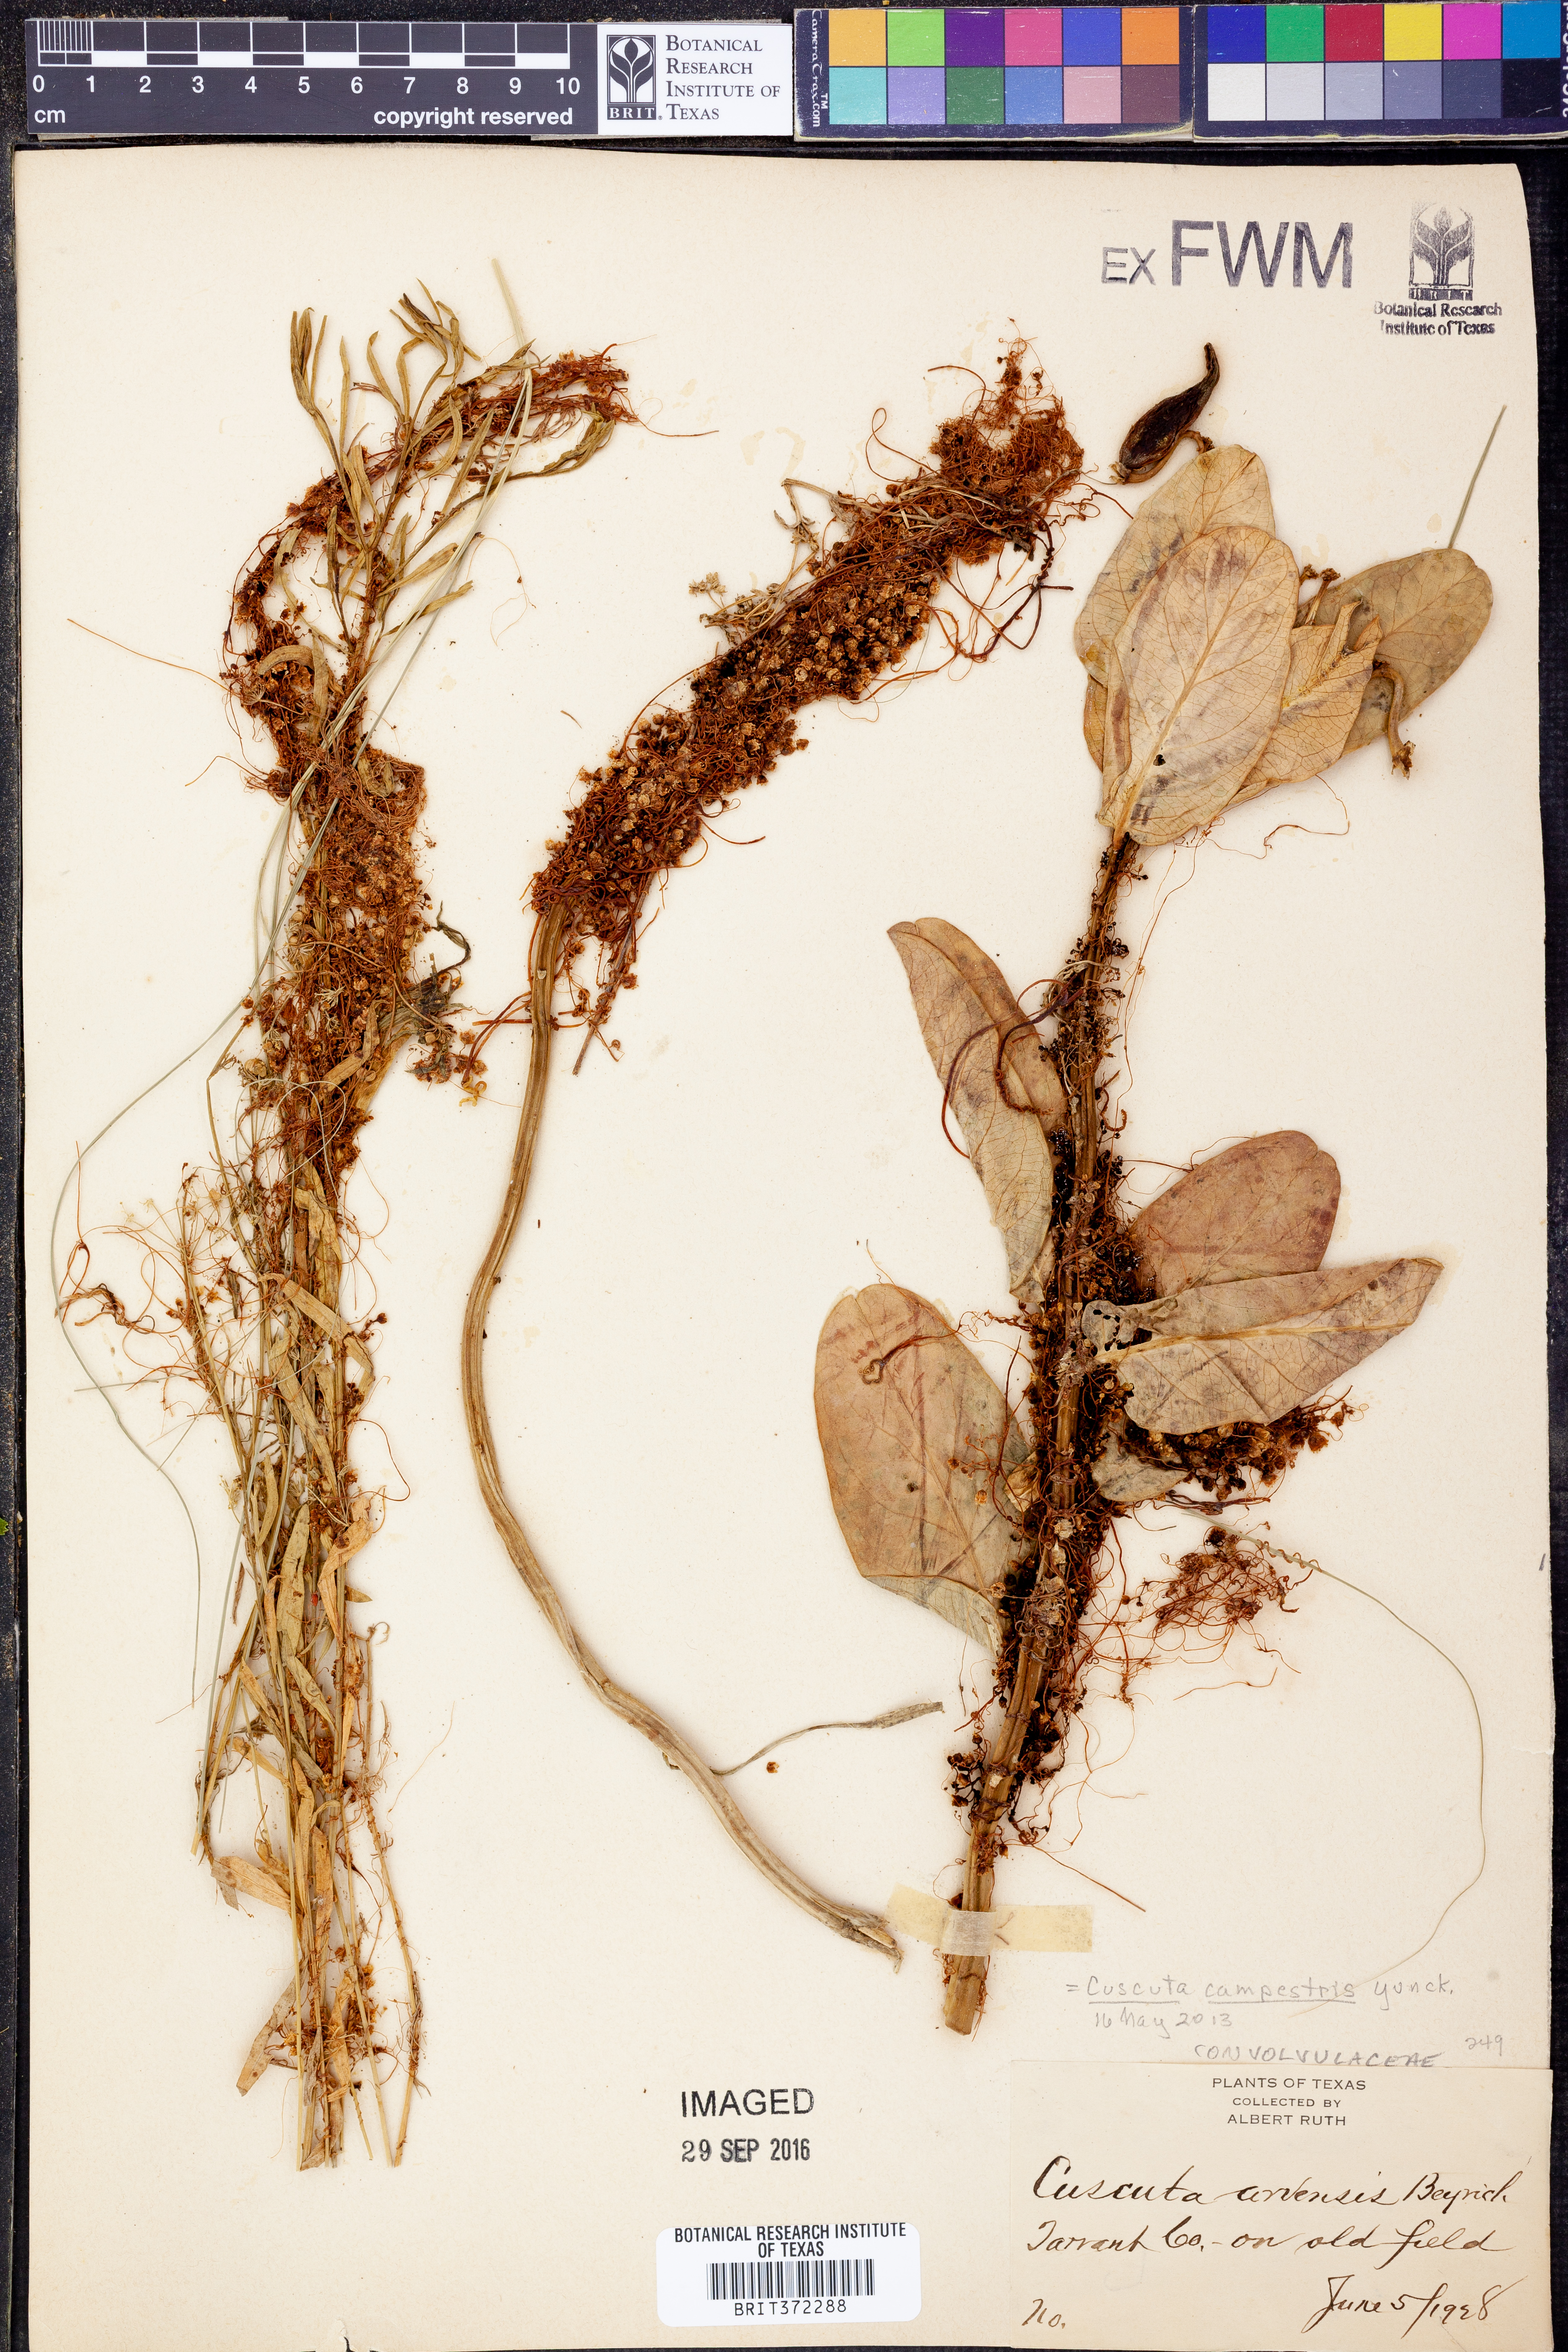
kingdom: Plantae
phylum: Tracheophyta
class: Magnoliopsida
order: Solanales
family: Convolvulaceae
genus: Cuscuta
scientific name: Cuscuta campestris
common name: Yellow dodder
